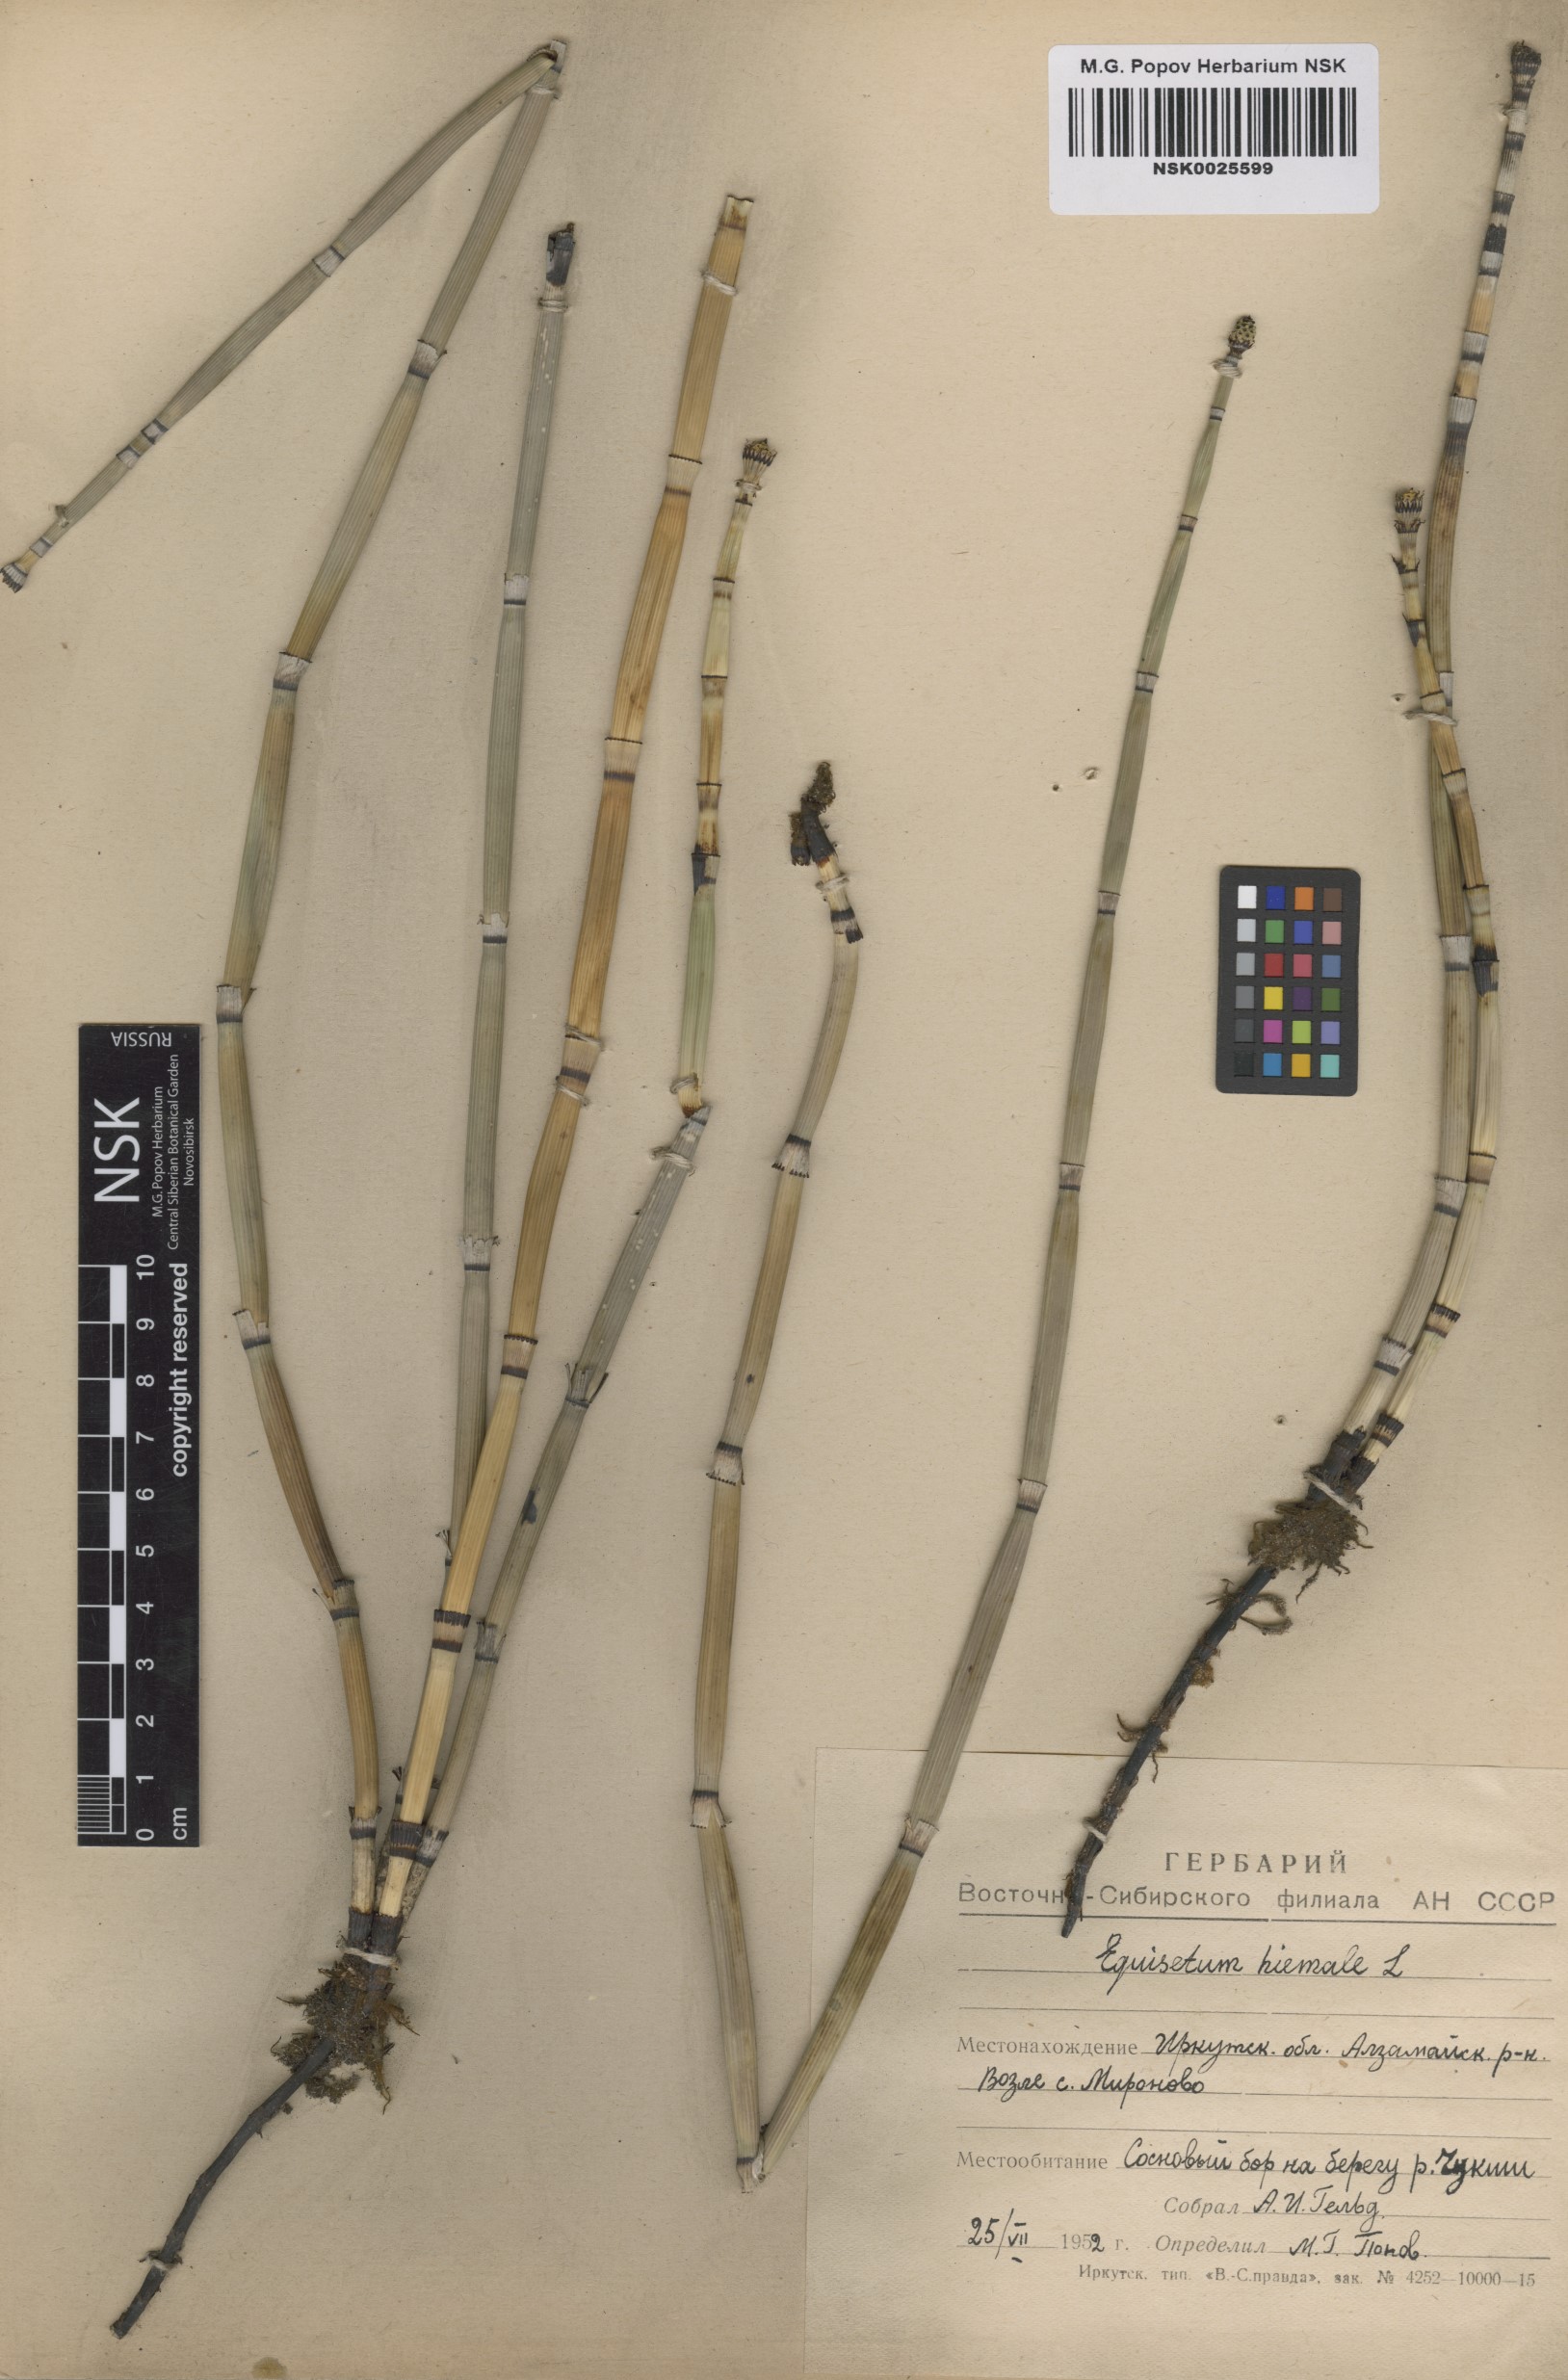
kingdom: Plantae
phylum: Tracheophyta
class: Polypodiopsida
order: Equisetales
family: Equisetaceae
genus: Equisetum
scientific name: Equisetum hyemale
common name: Rough horsetail
